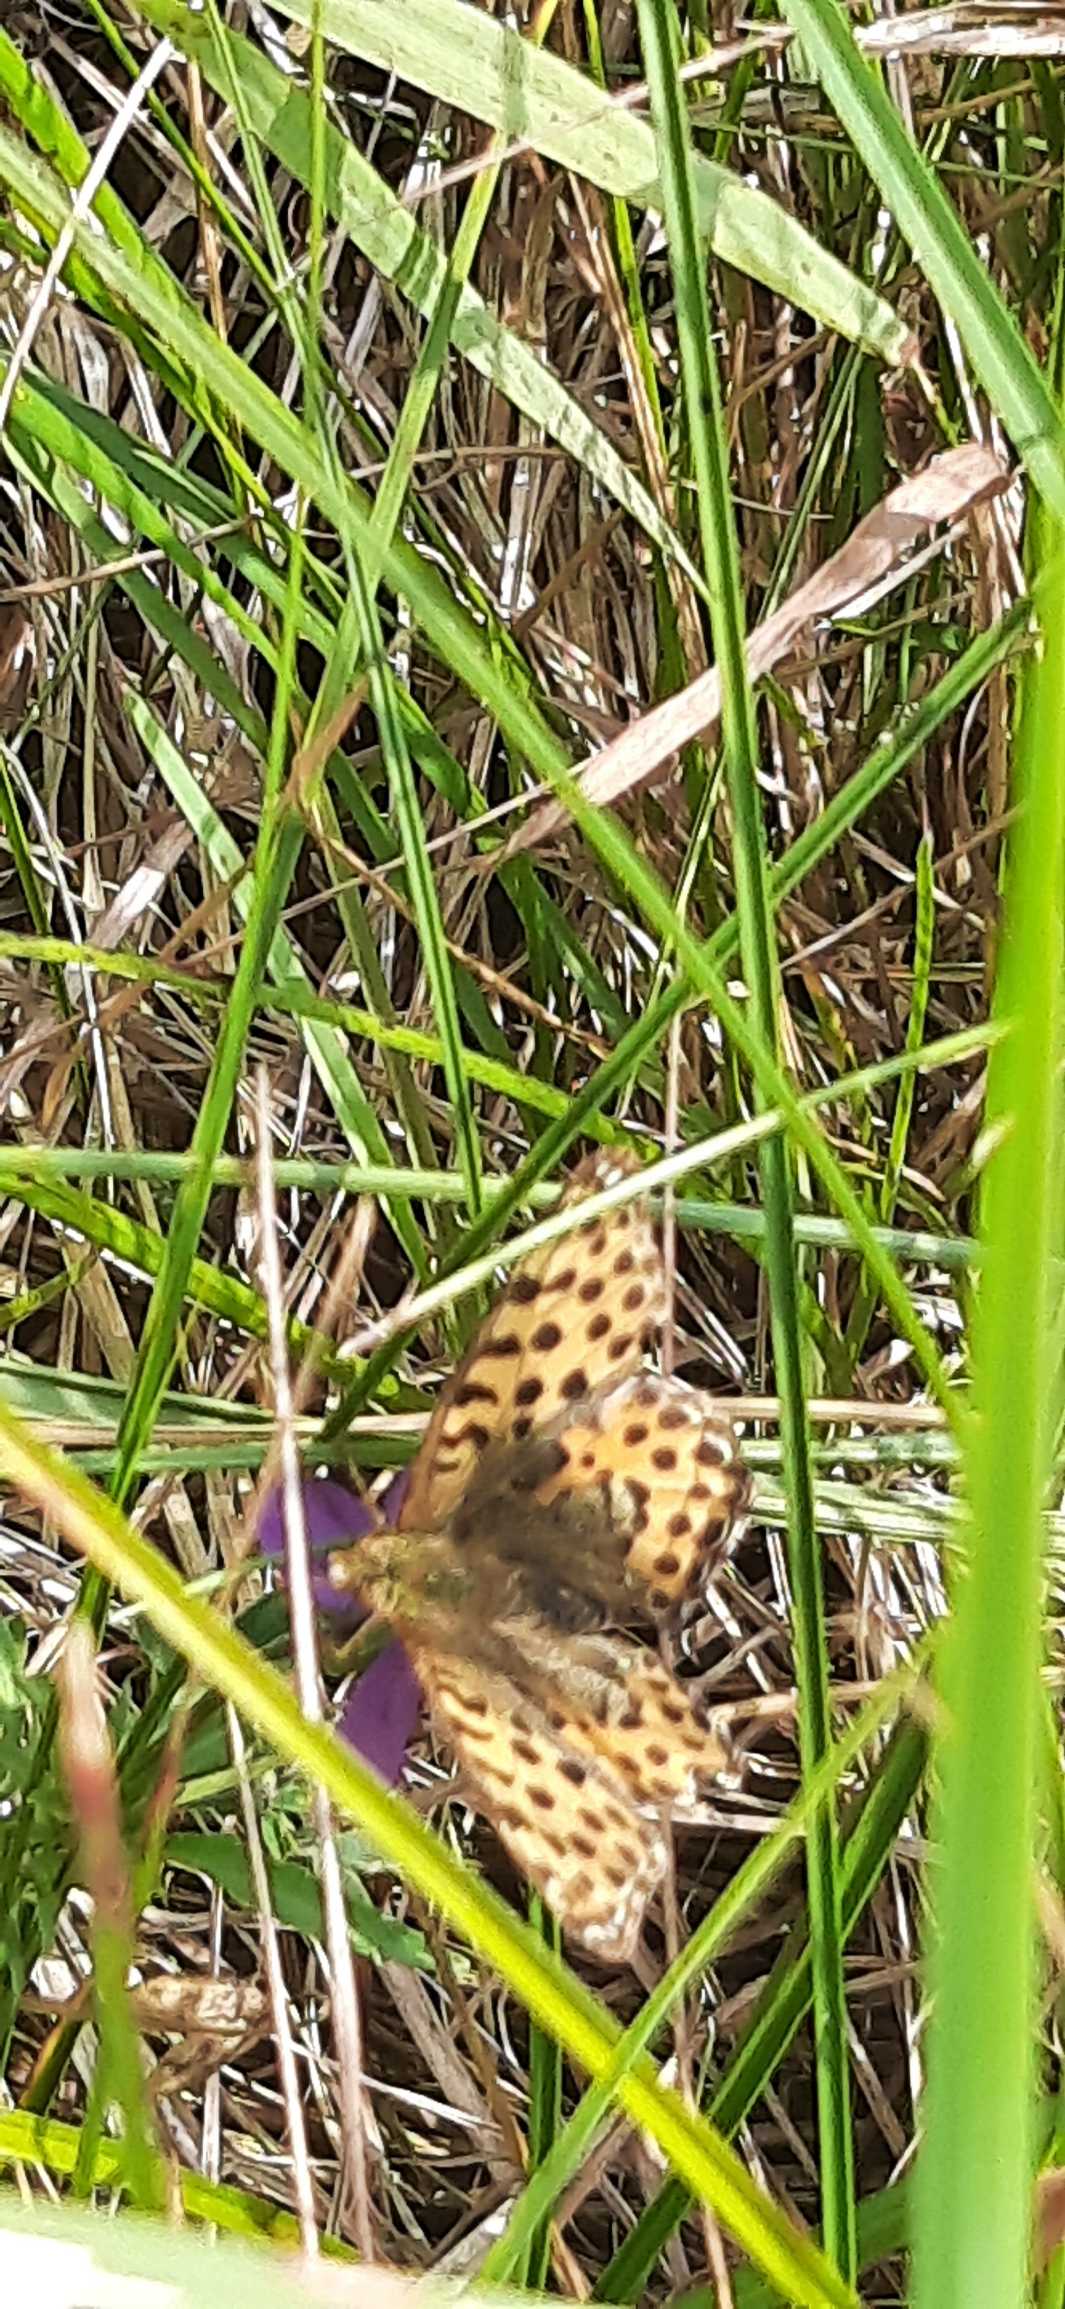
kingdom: Animalia
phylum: Arthropoda
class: Insecta
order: Lepidoptera
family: Nymphalidae
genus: Issoria
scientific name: Issoria lathonia
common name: Storplettet perlemorsommerfugl
